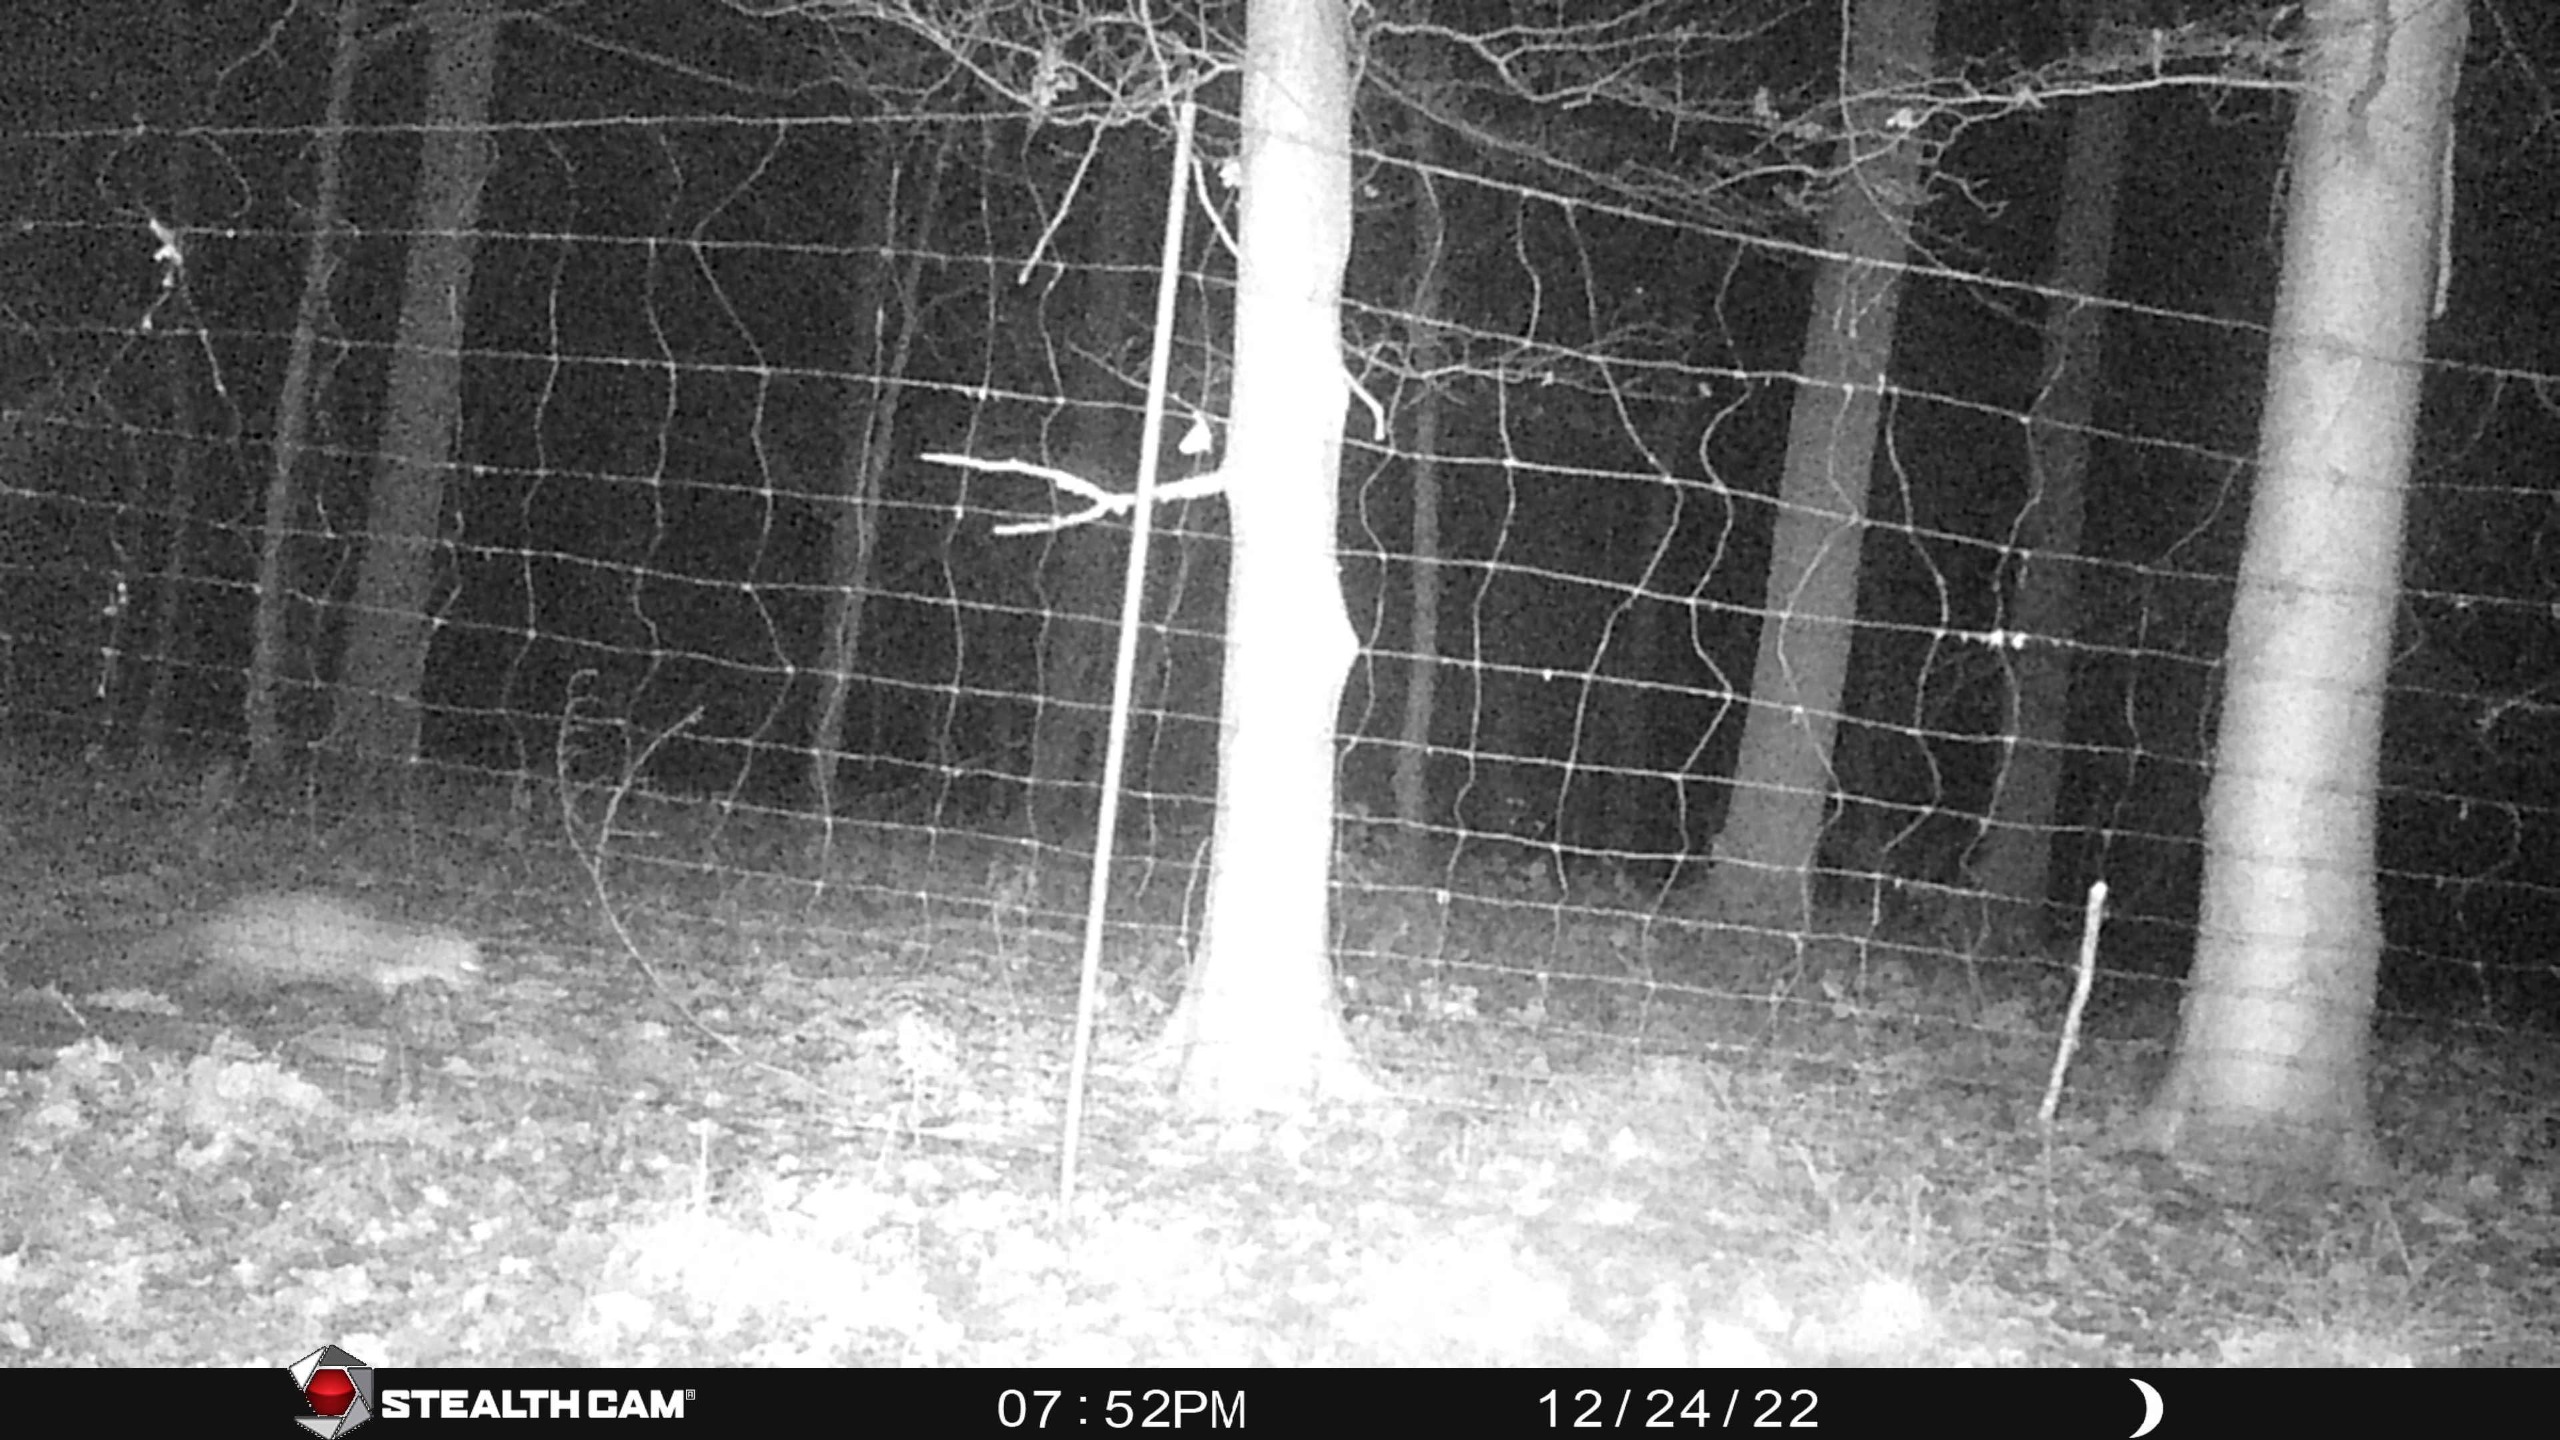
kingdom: Animalia
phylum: Chordata
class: Mammalia
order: Carnivora
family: Mustelidae
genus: Martes
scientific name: Martes foina
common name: Husmår
